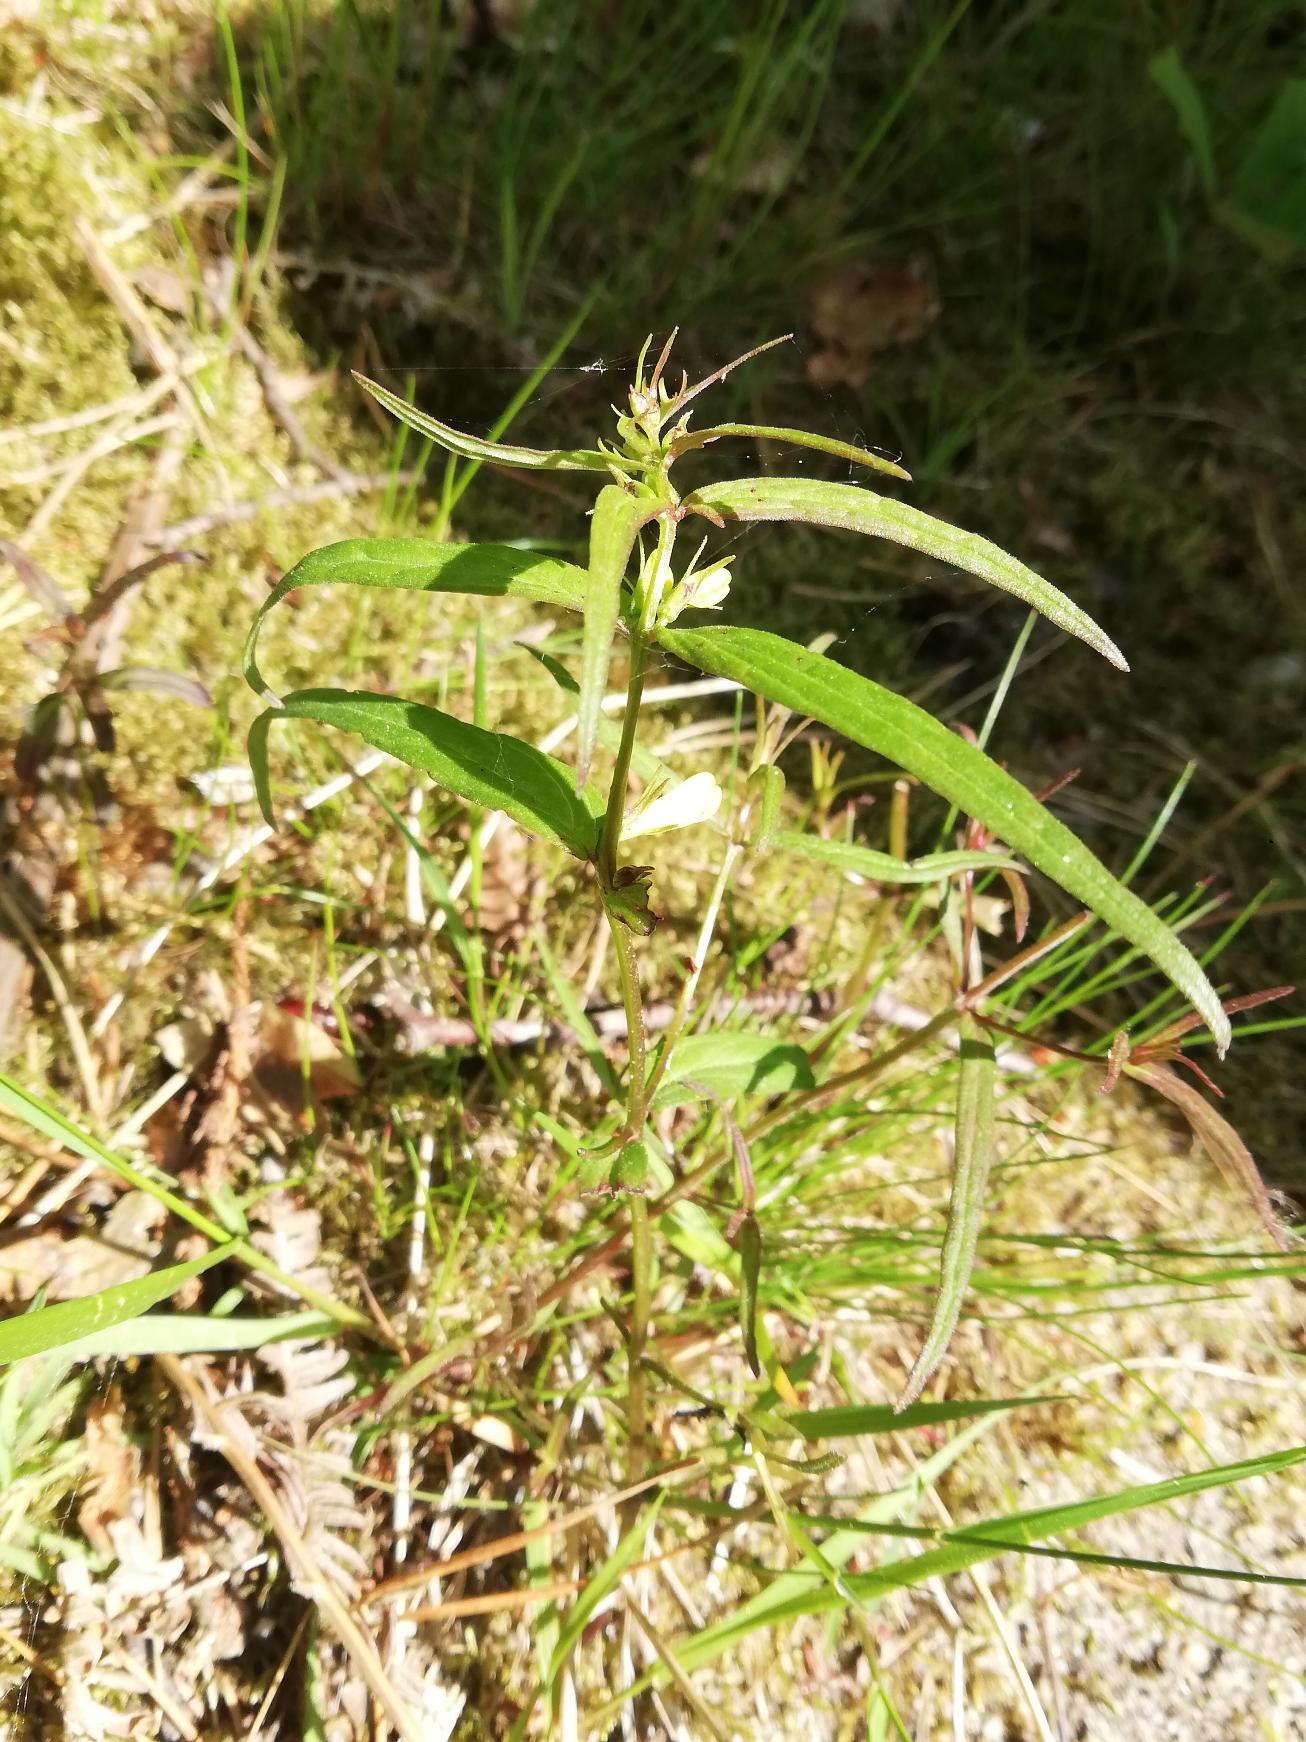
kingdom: Plantae
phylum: Tracheophyta
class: Magnoliopsida
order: Lamiales
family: Orobanchaceae
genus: Melampyrum
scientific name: Melampyrum pratense
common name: Almindelig kohvede
